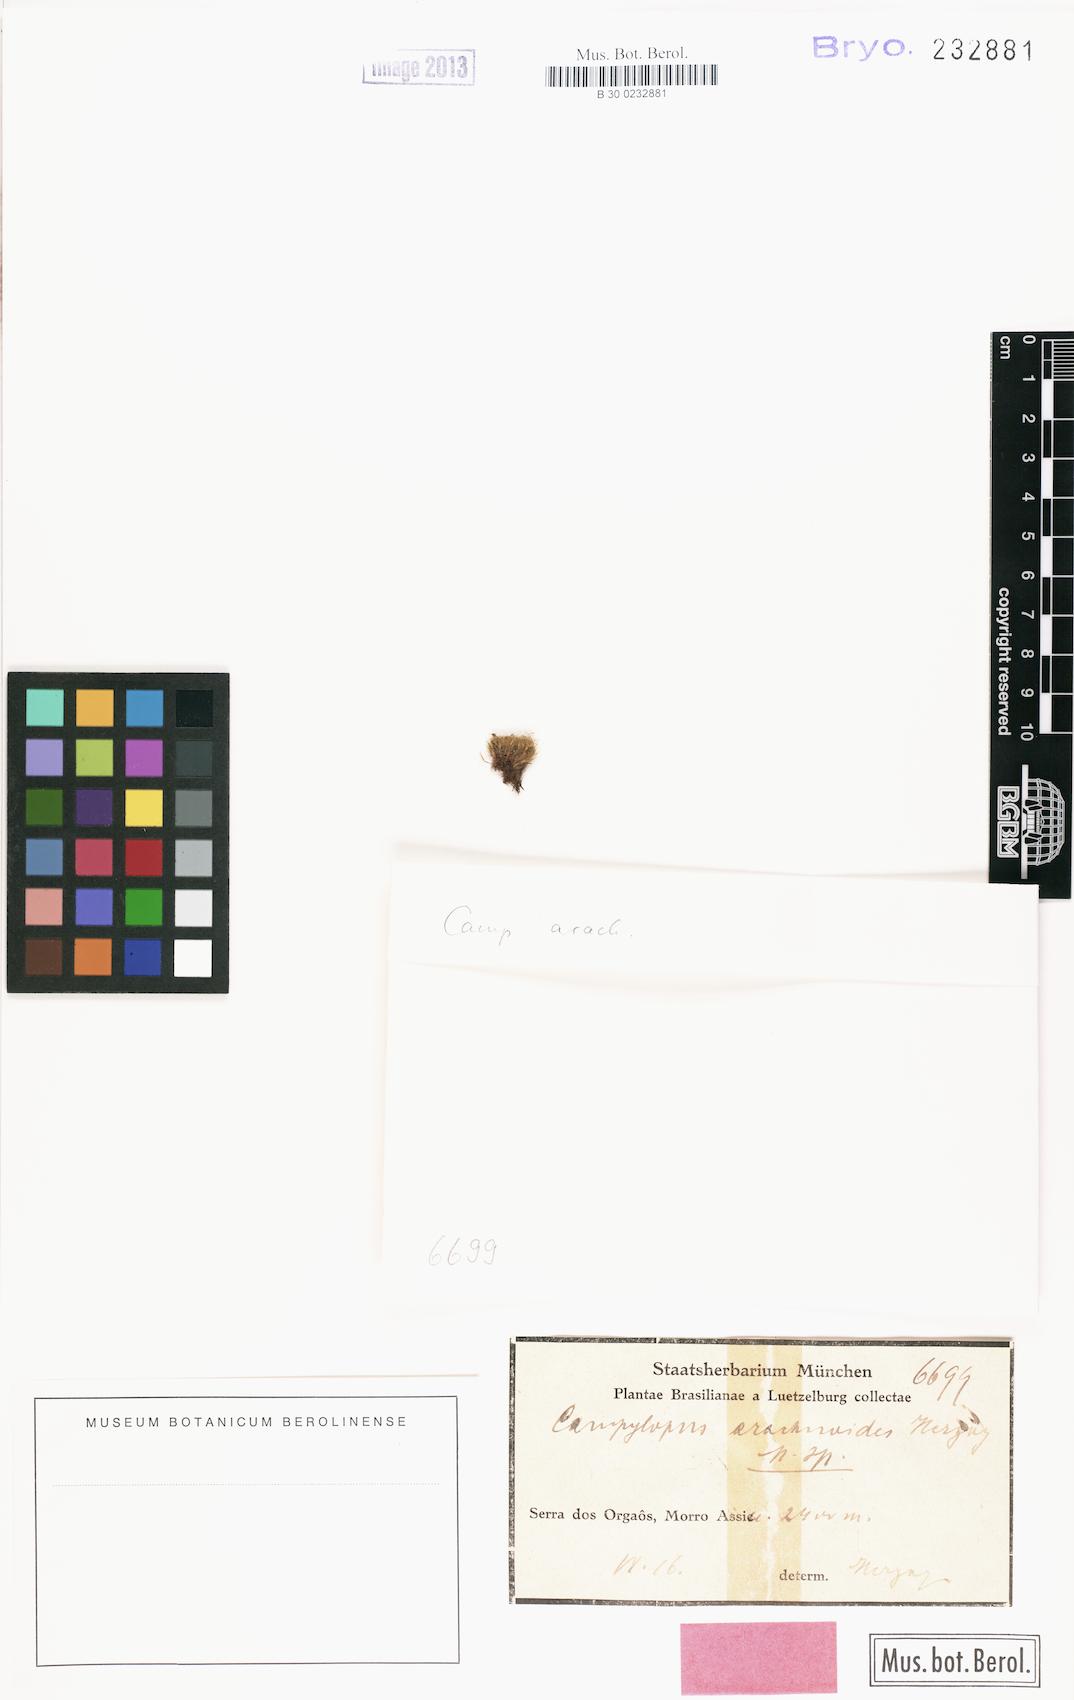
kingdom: Plantae
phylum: Bryophyta
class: Bryopsida
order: Dicranales
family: Leucobryaceae
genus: Campylopus
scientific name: Campylopus gemmatus
